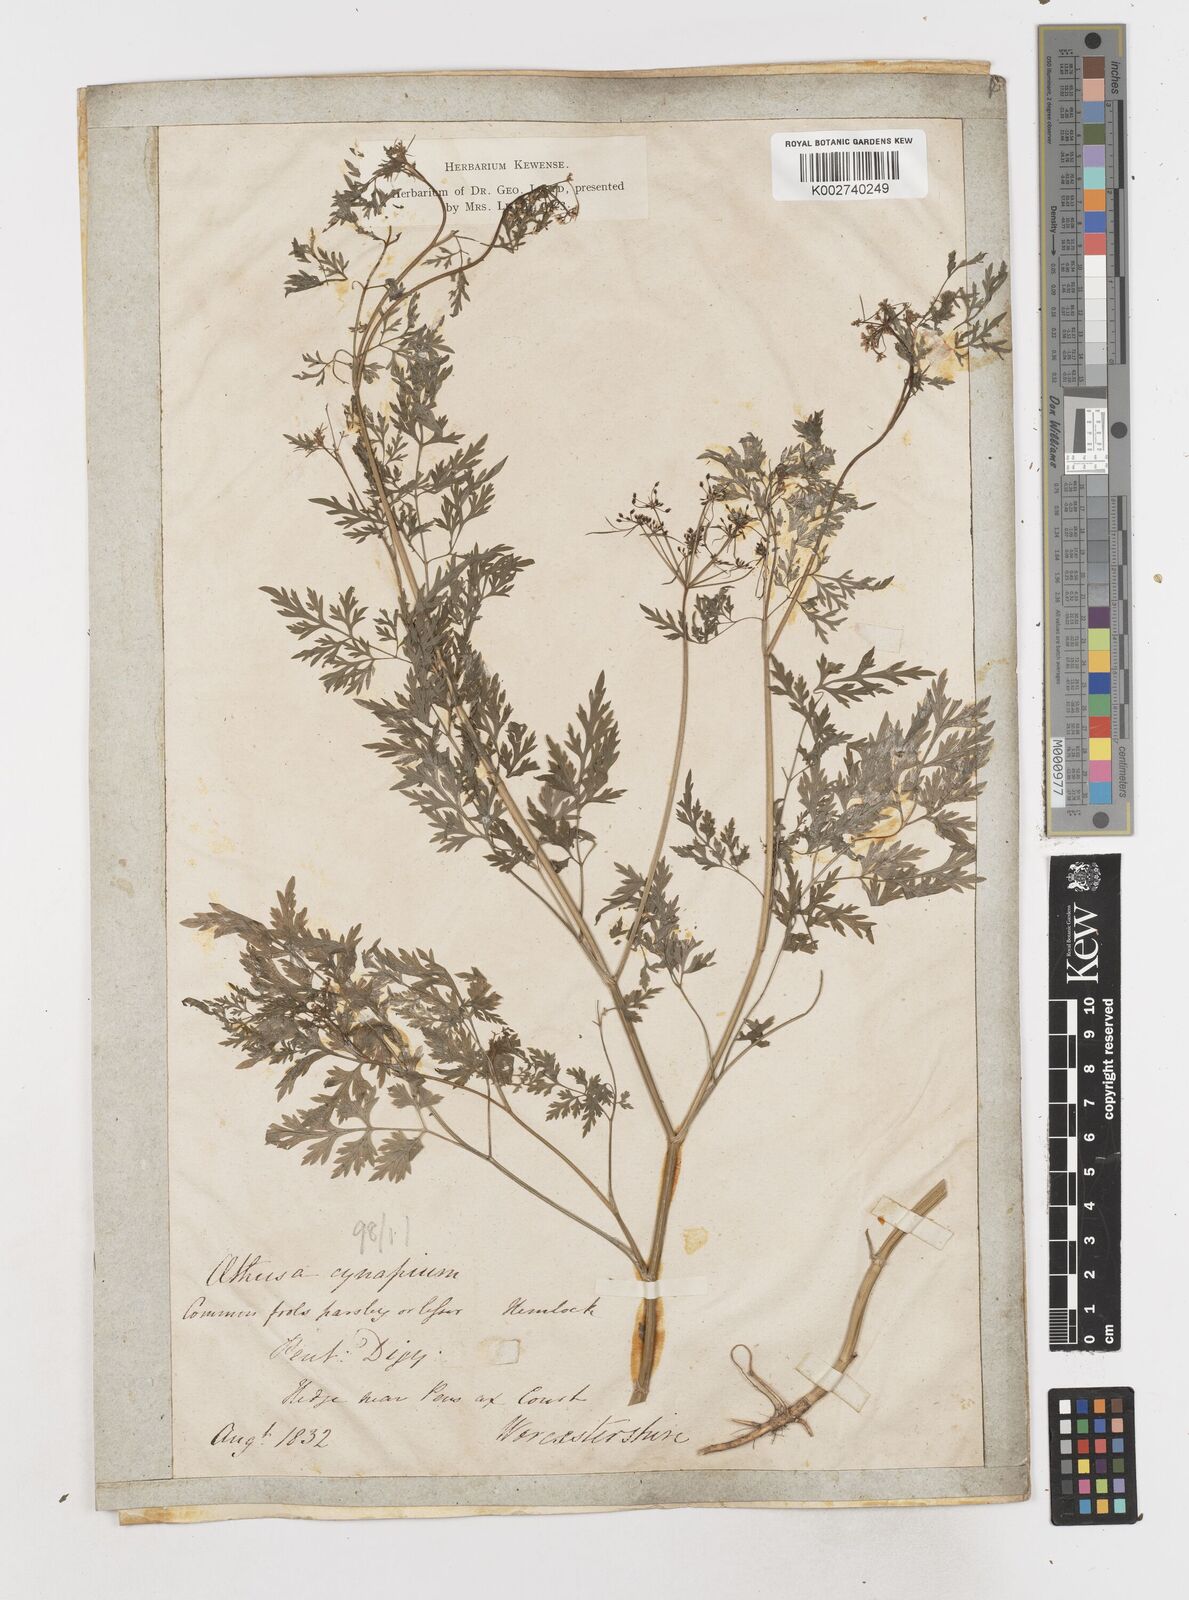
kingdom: Plantae
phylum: Tracheophyta
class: Magnoliopsida
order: Apiales
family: Apiaceae
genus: Aethusa
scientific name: Aethusa cynapium
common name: Fool's parsley
